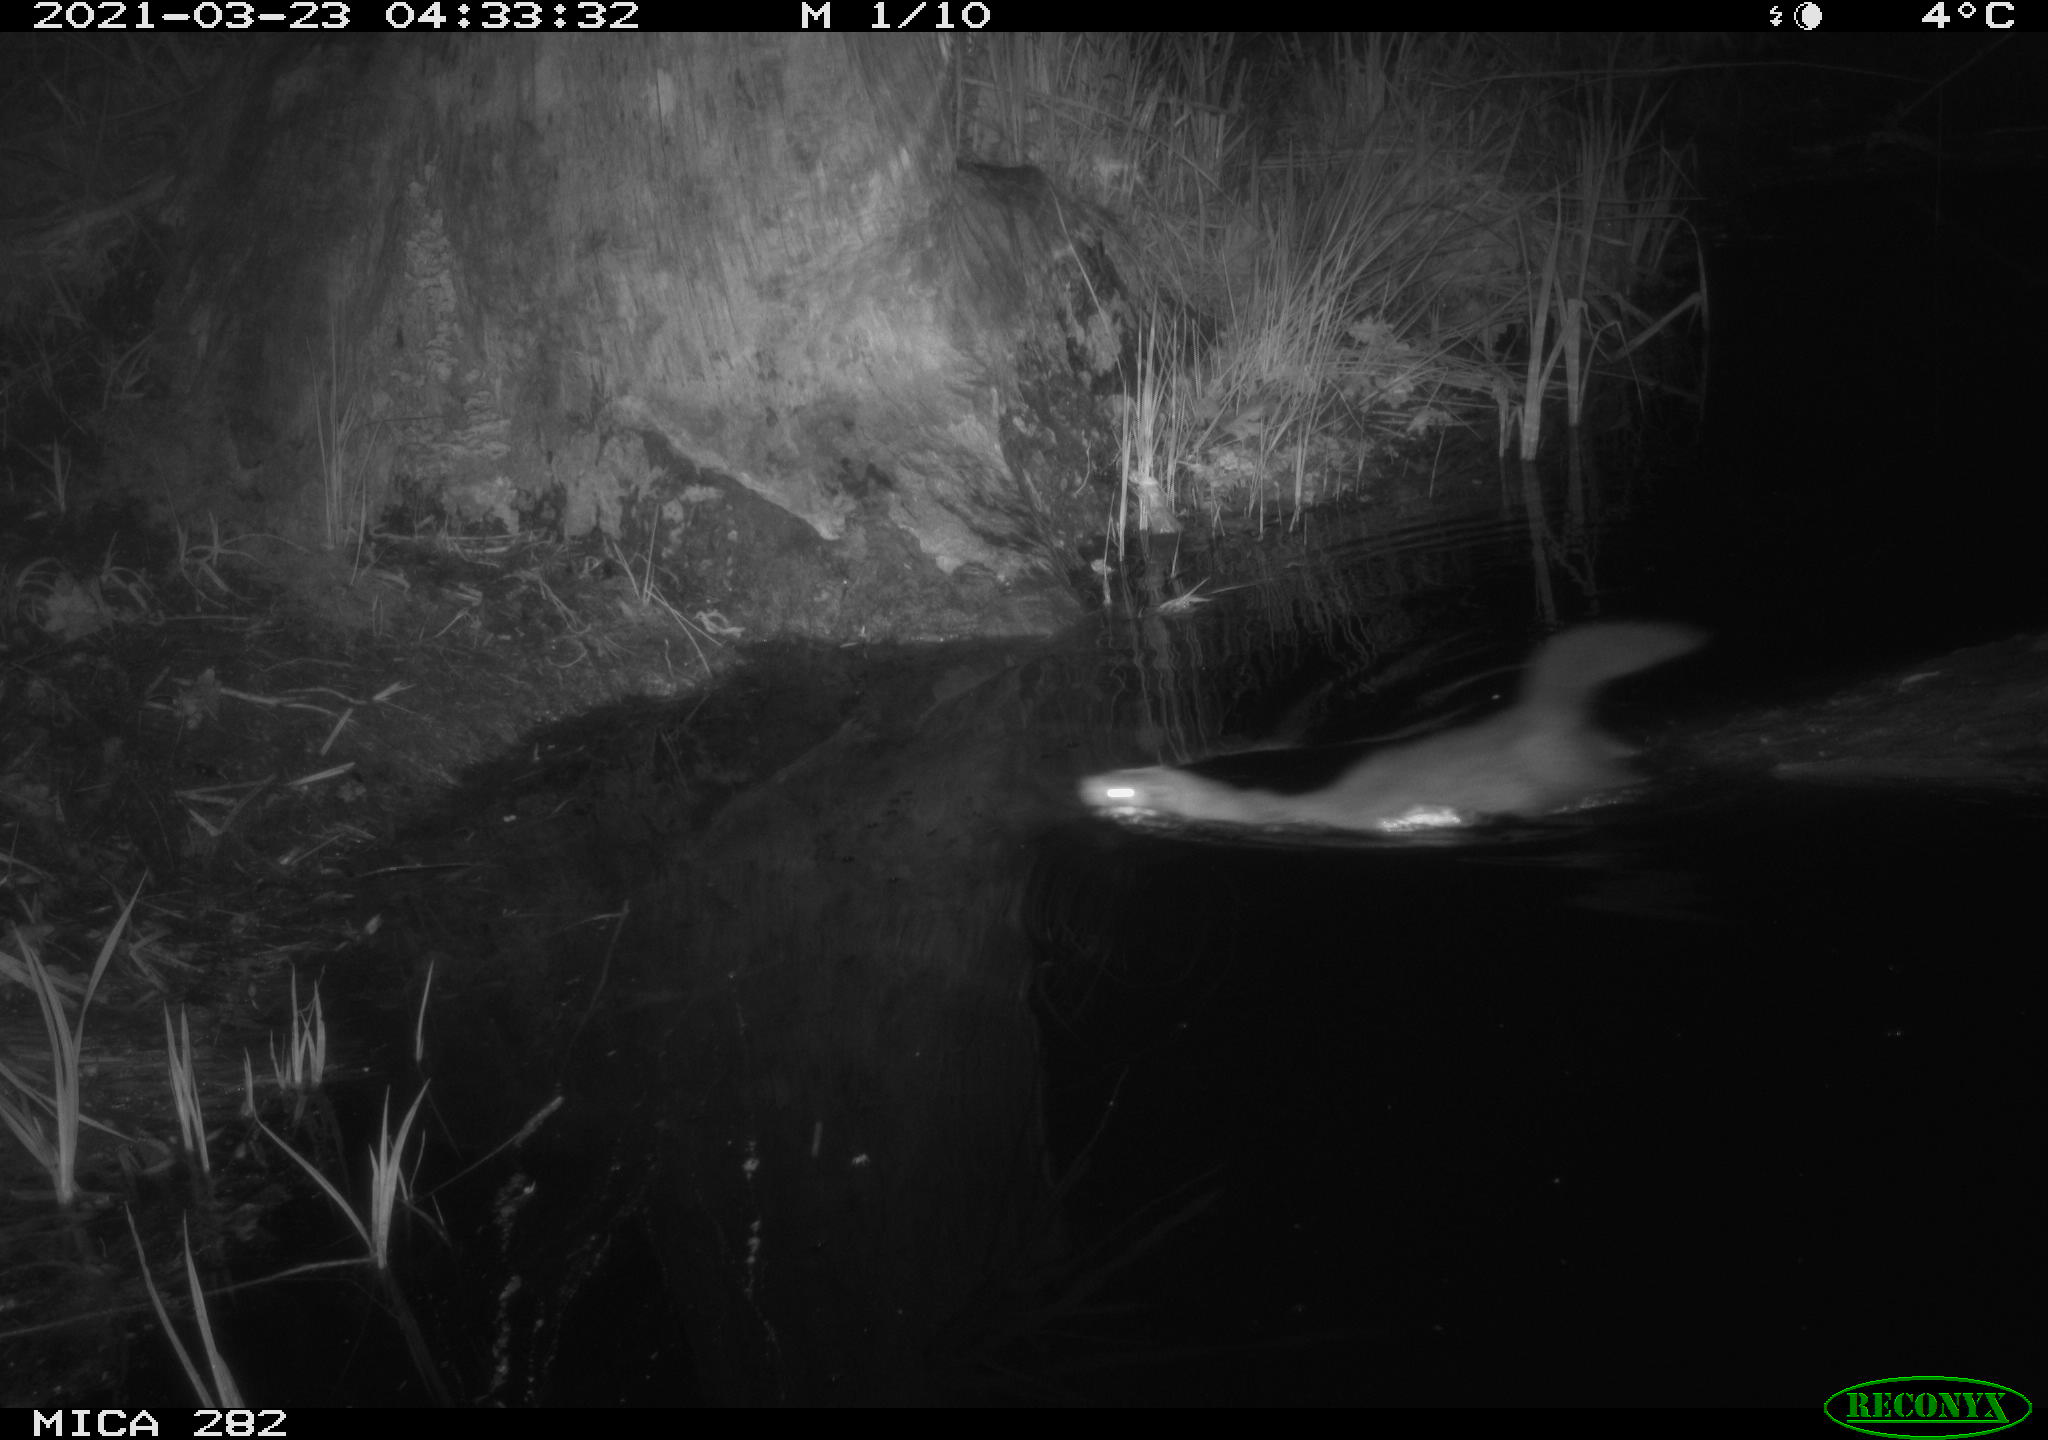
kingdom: Animalia
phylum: Chordata
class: Mammalia
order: Carnivora
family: Mustelidae
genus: Mustela
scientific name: Mustela putorius
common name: European polecat
